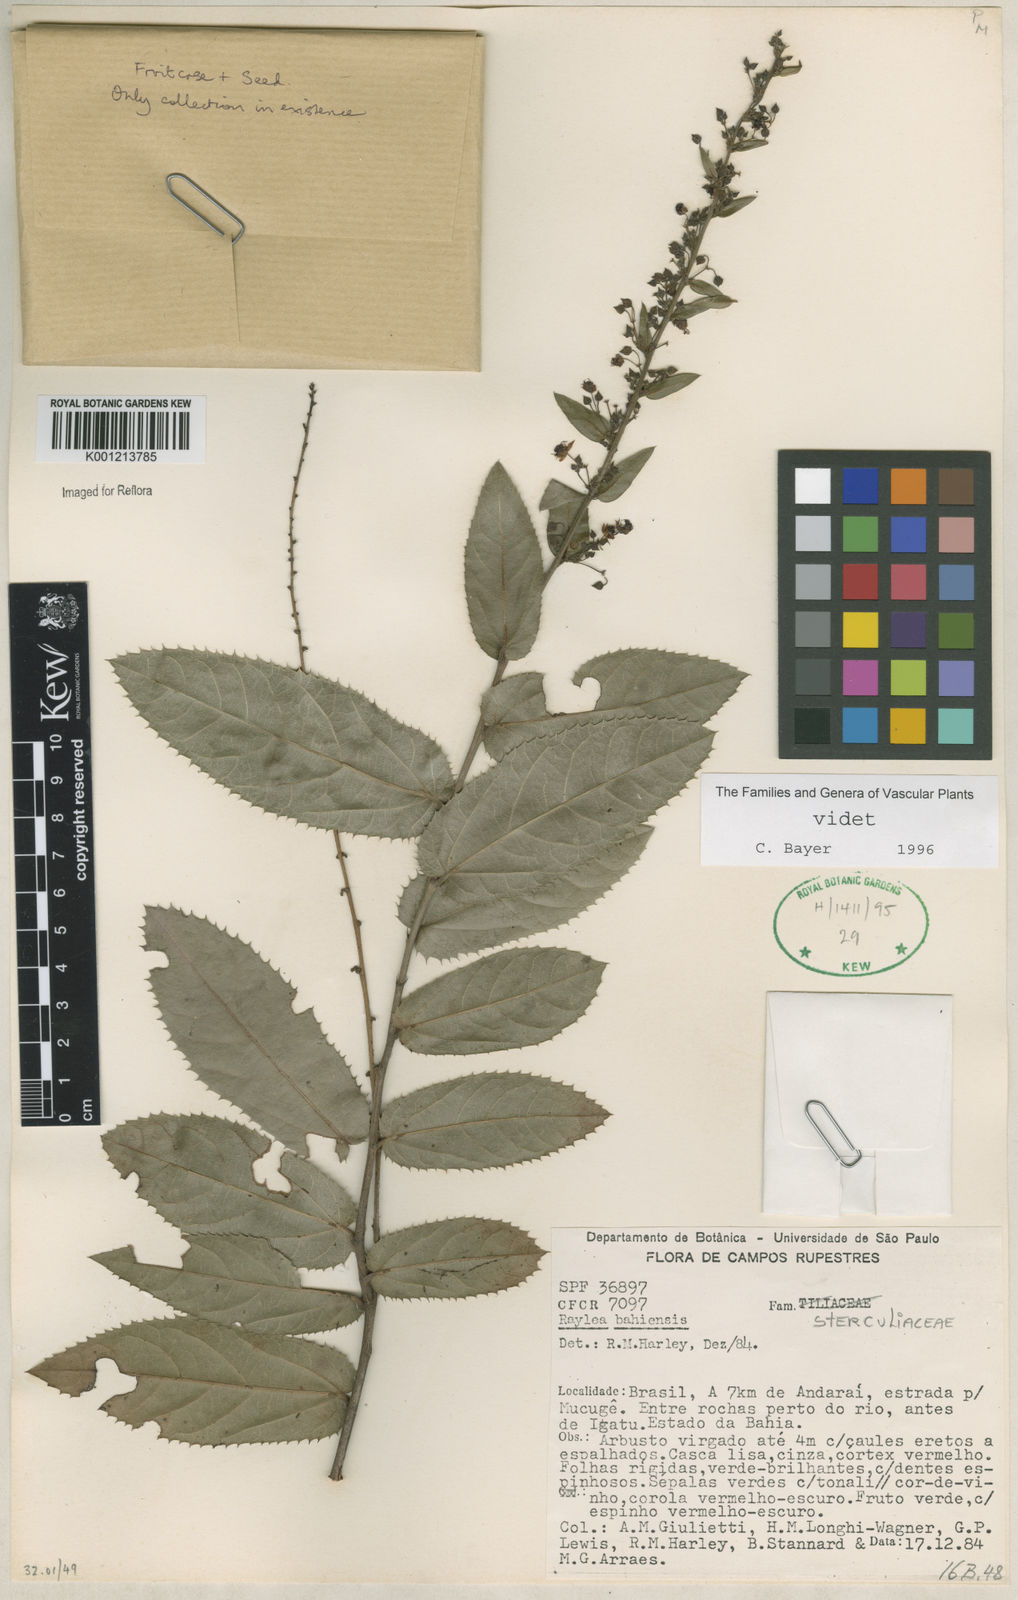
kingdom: Plantae
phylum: Tracheophyta
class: Magnoliopsida
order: Malvales
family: Malvaceae
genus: Rayleya
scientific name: Rayleya
